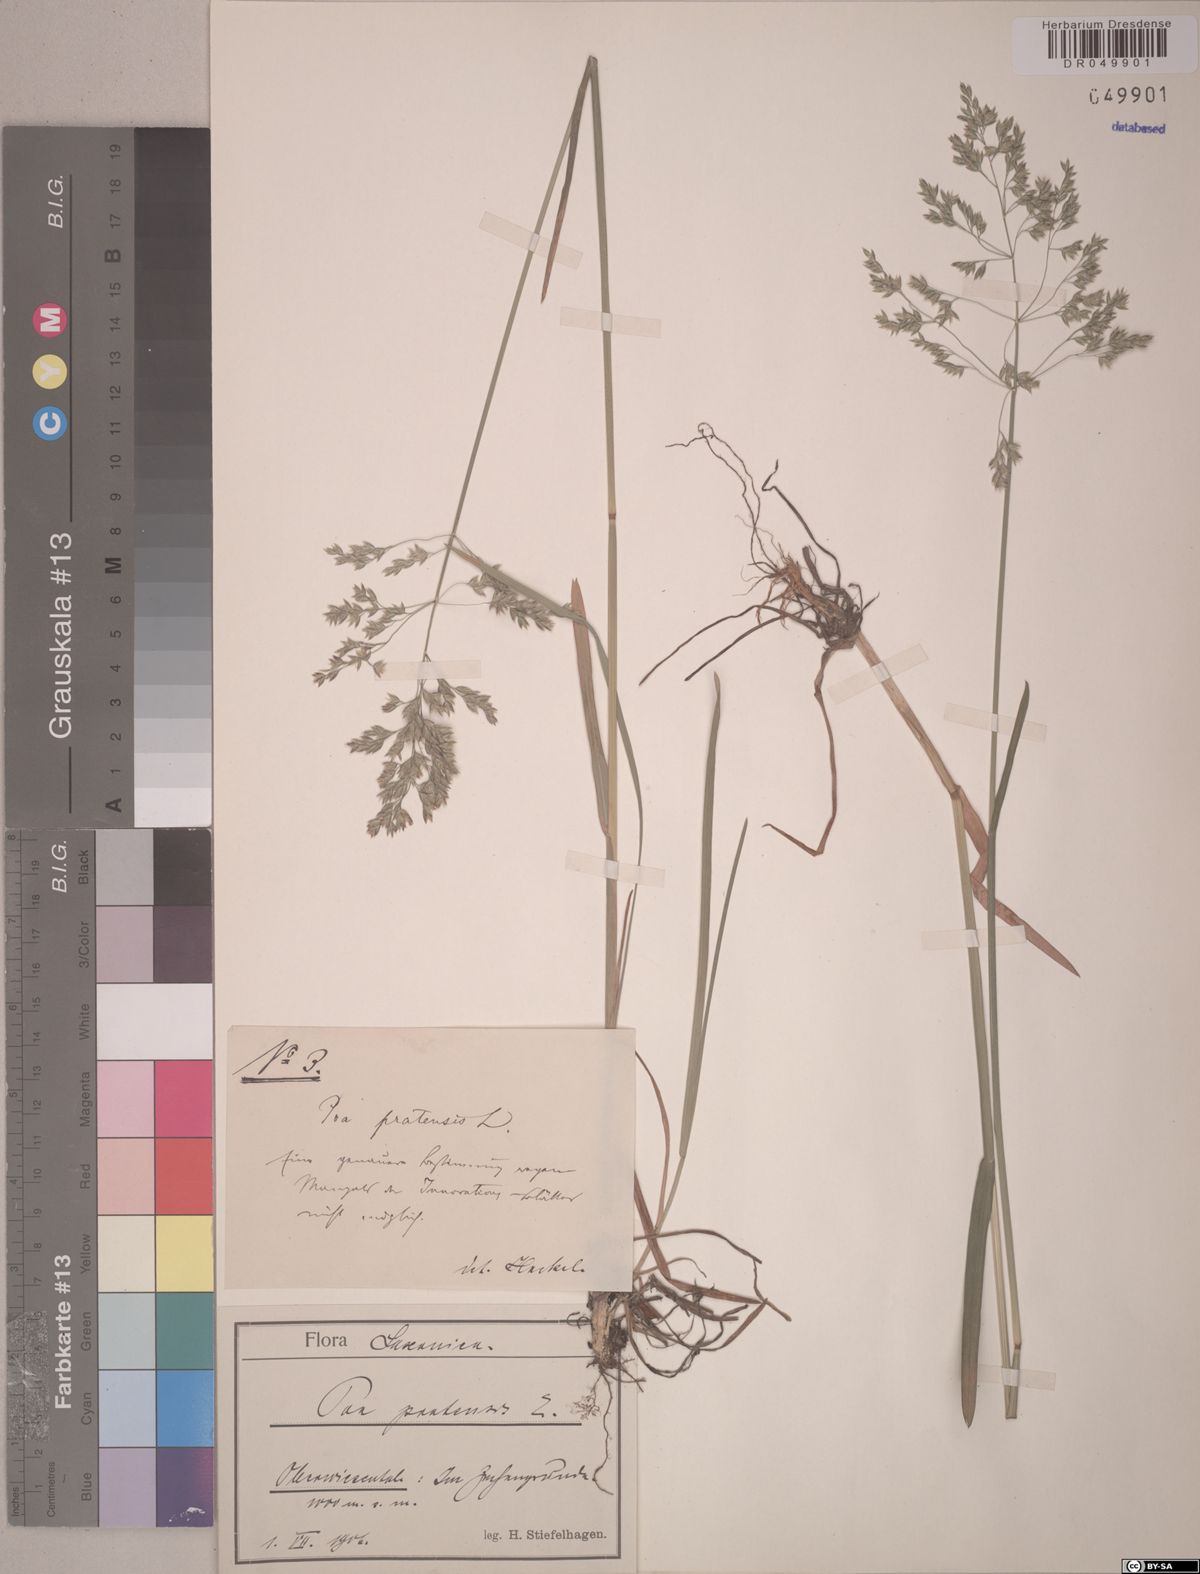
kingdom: Plantae
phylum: Tracheophyta
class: Liliopsida
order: Poales
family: Poaceae
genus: Poa
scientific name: Poa pratensis
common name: Kentucky bluegrass
